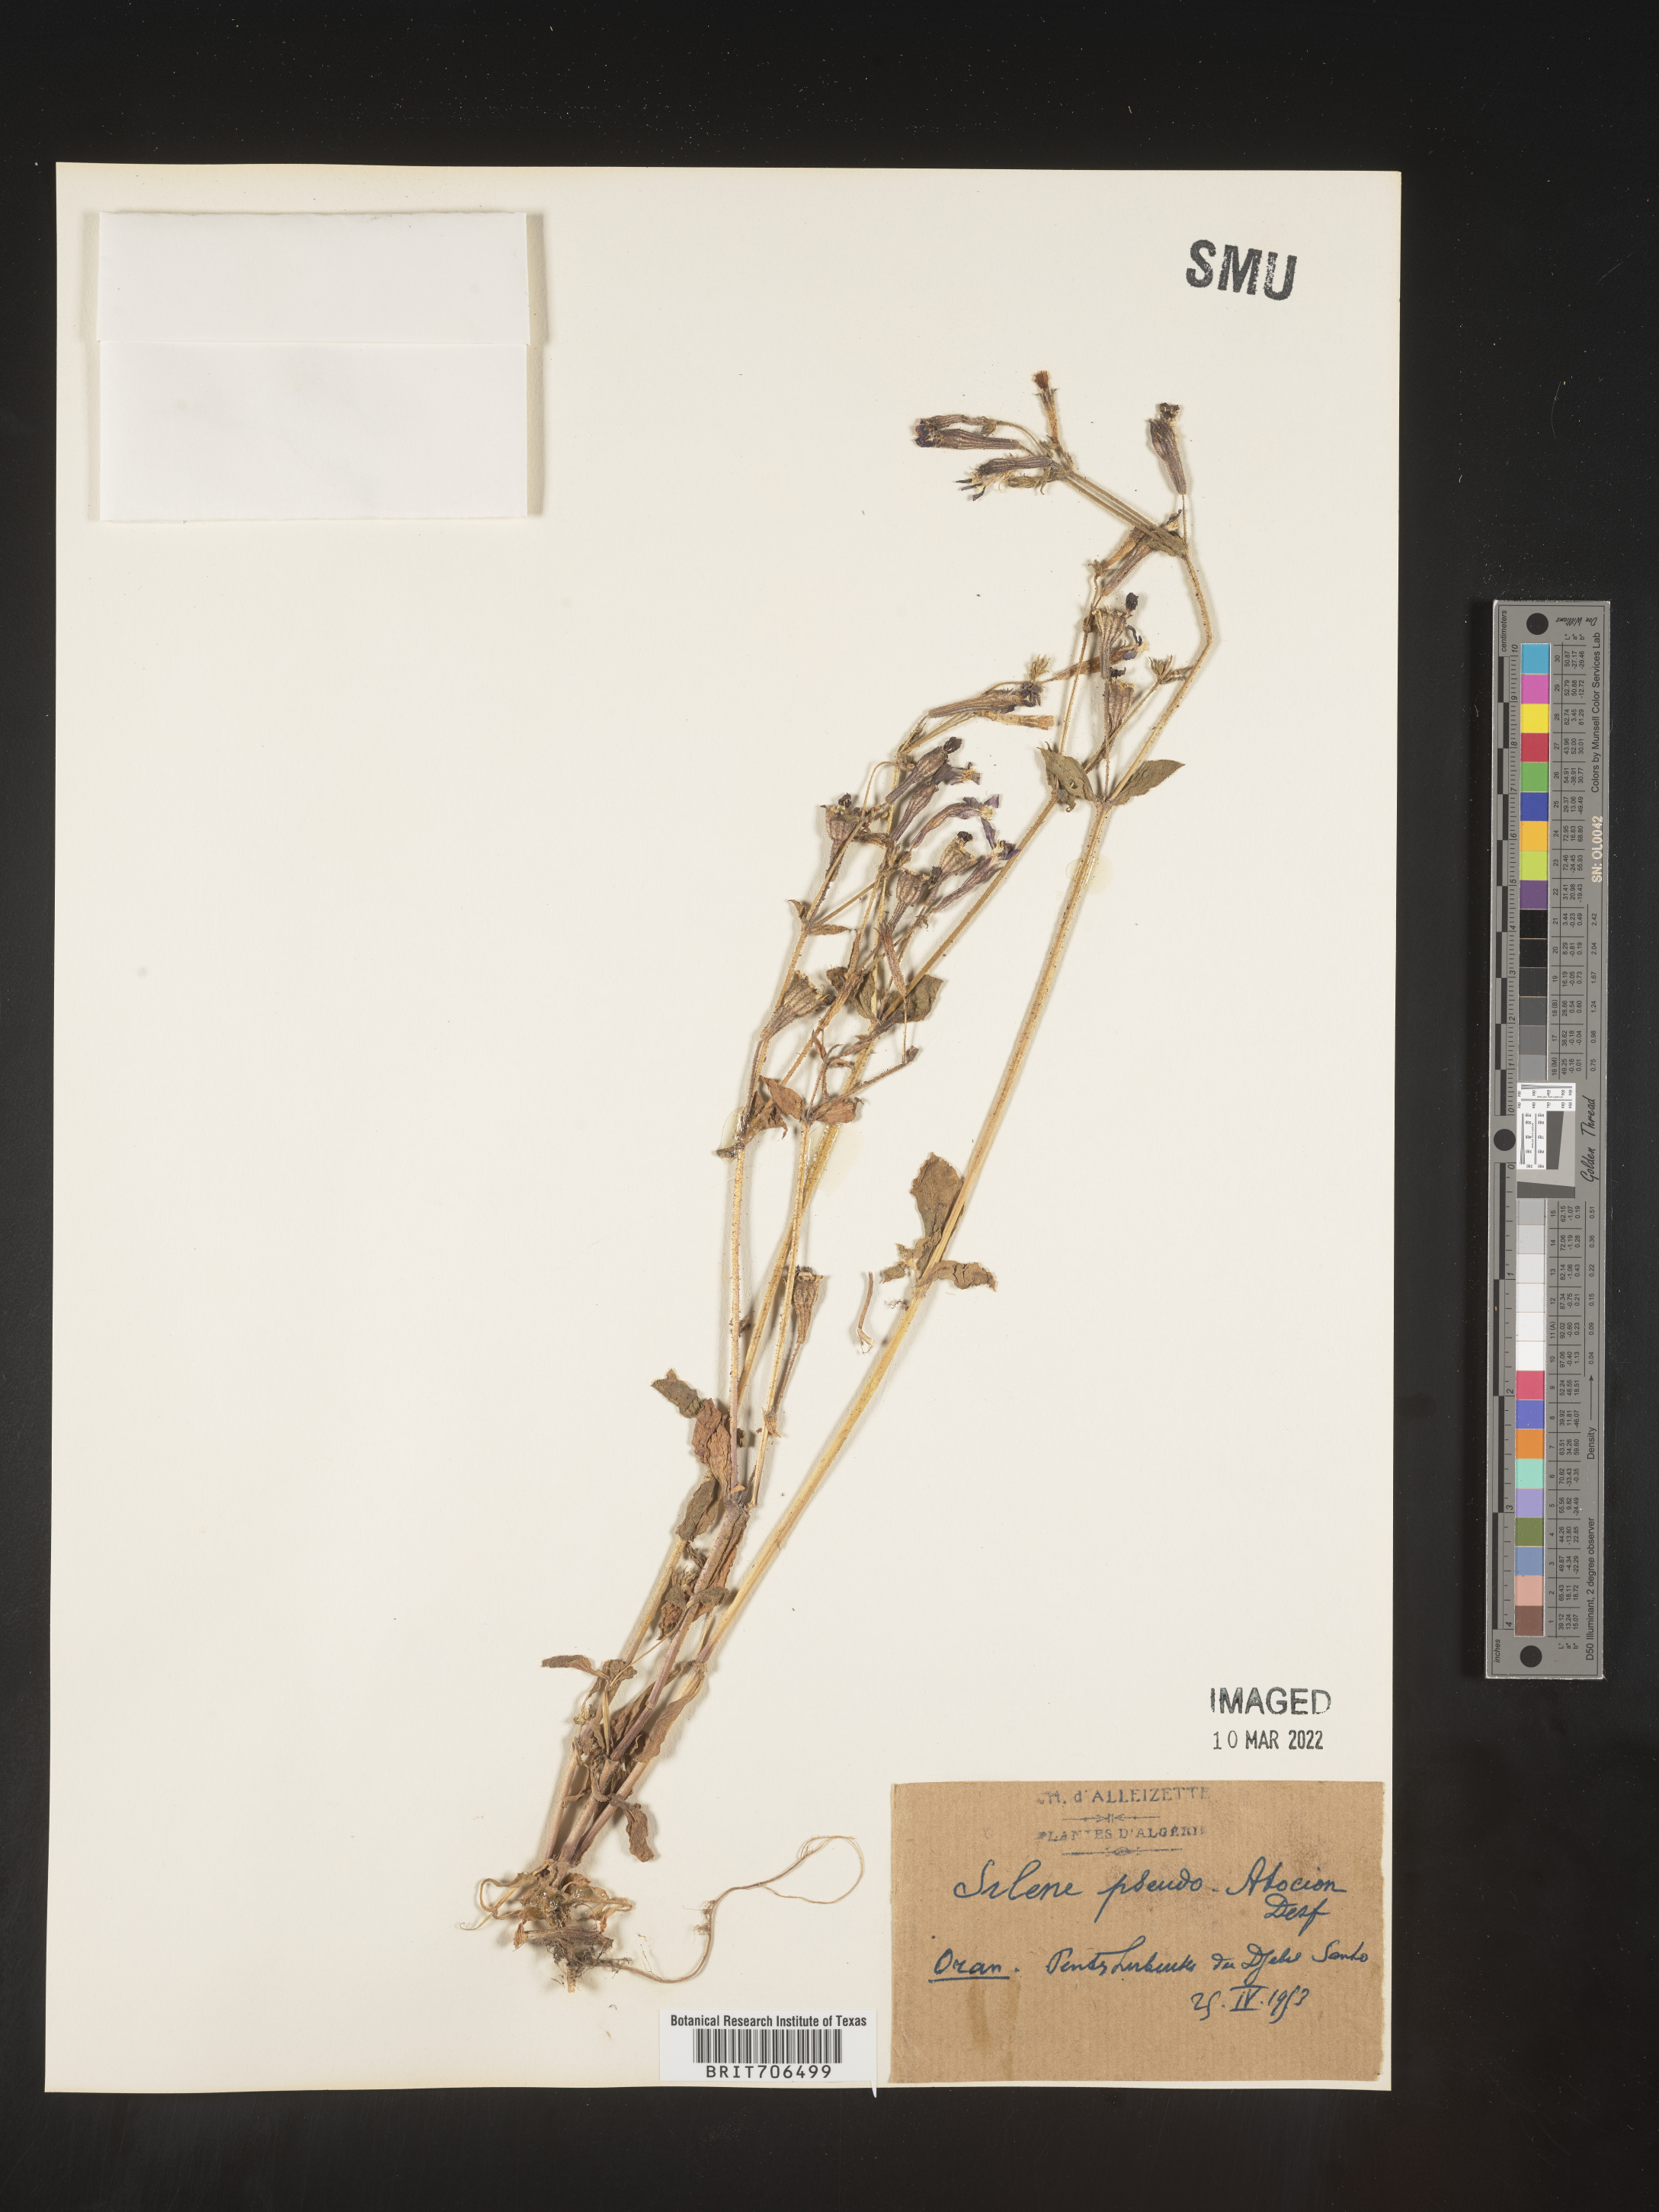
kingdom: Plantae
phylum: Tracheophyta
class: Magnoliopsida
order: Caryophyllales
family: Caryophyllaceae
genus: Silene
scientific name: Silene
